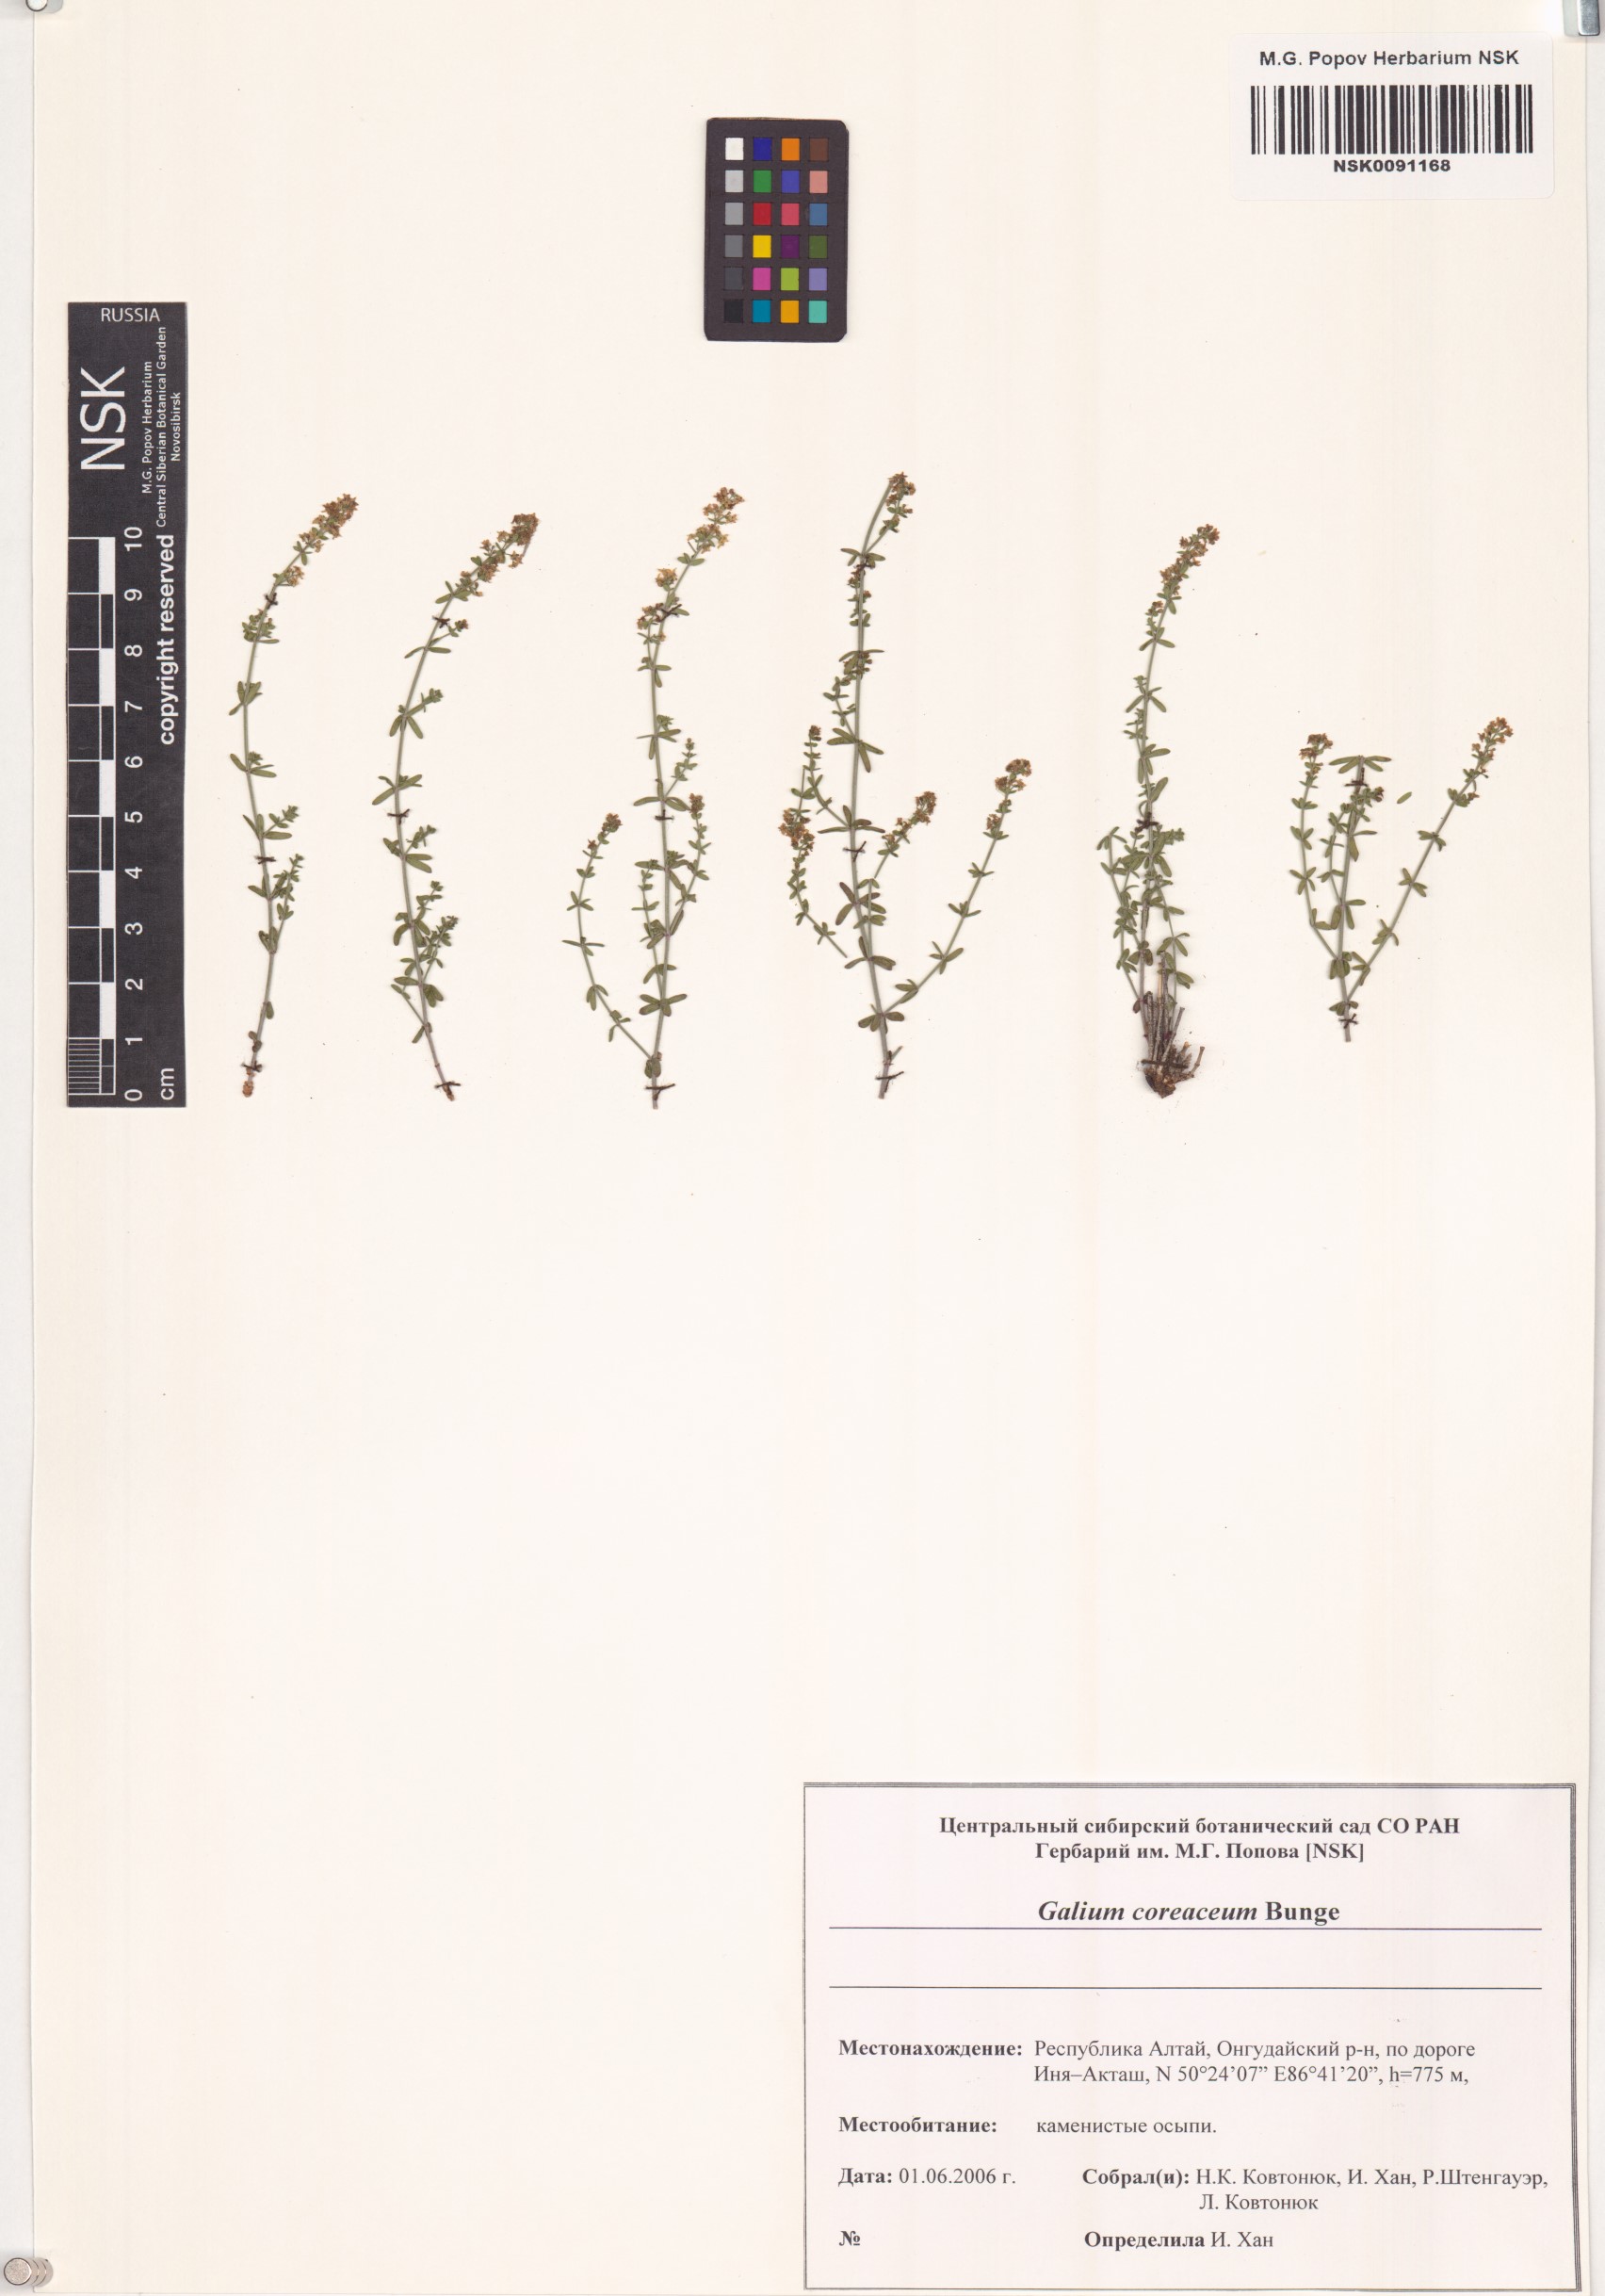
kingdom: Plantae
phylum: Tracheophyta
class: Magnoliopsida
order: Gentianales
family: Rubiaceae
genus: Galium
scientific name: Galium coriaceum
